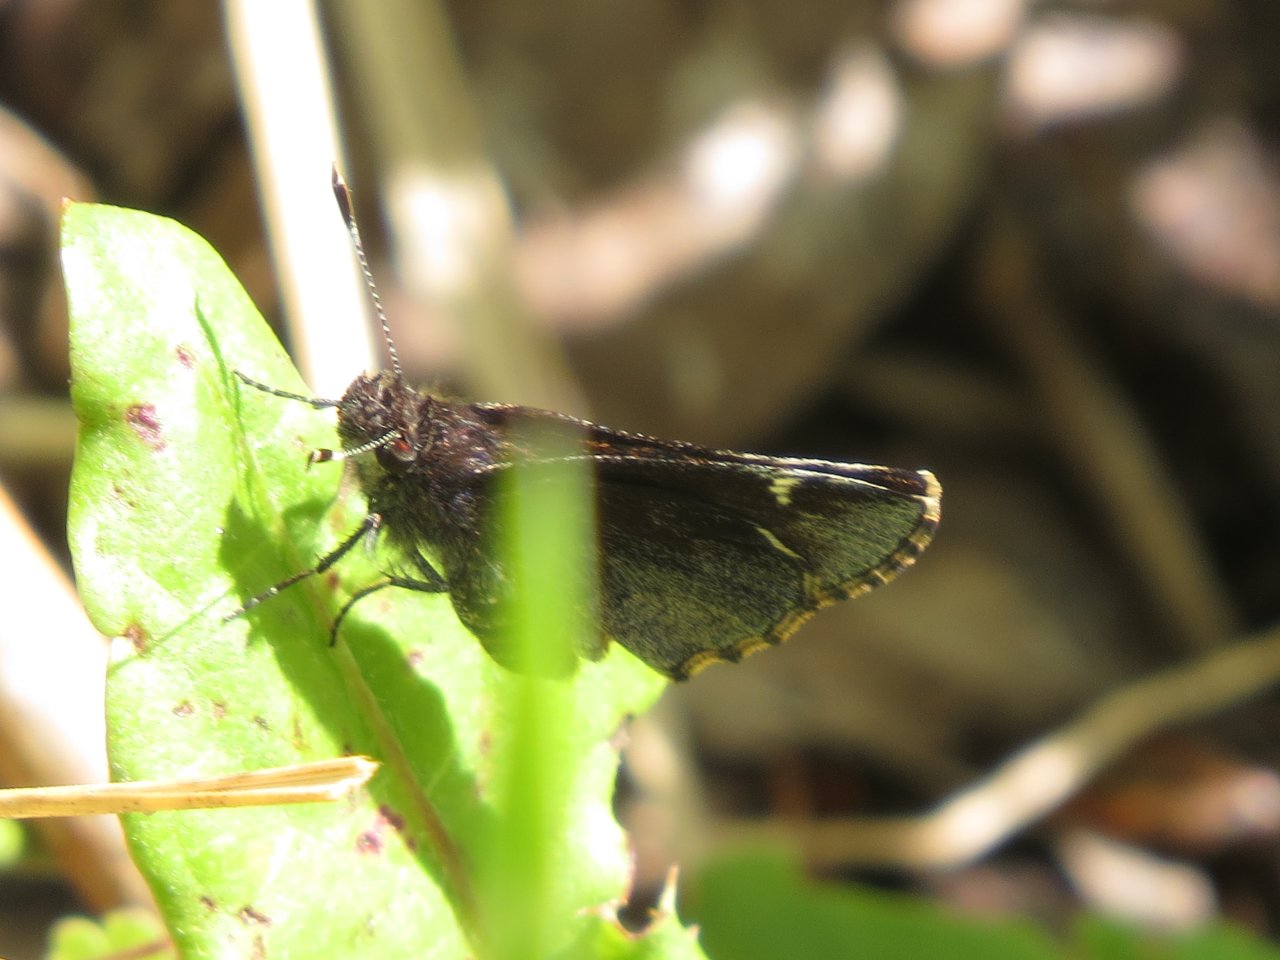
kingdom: Animalia
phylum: Arthropoda
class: Insecta
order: Lepidoptera
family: Hesperiidae
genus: Mastor
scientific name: Mastor vialis
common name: Common Roadside-Skipper
